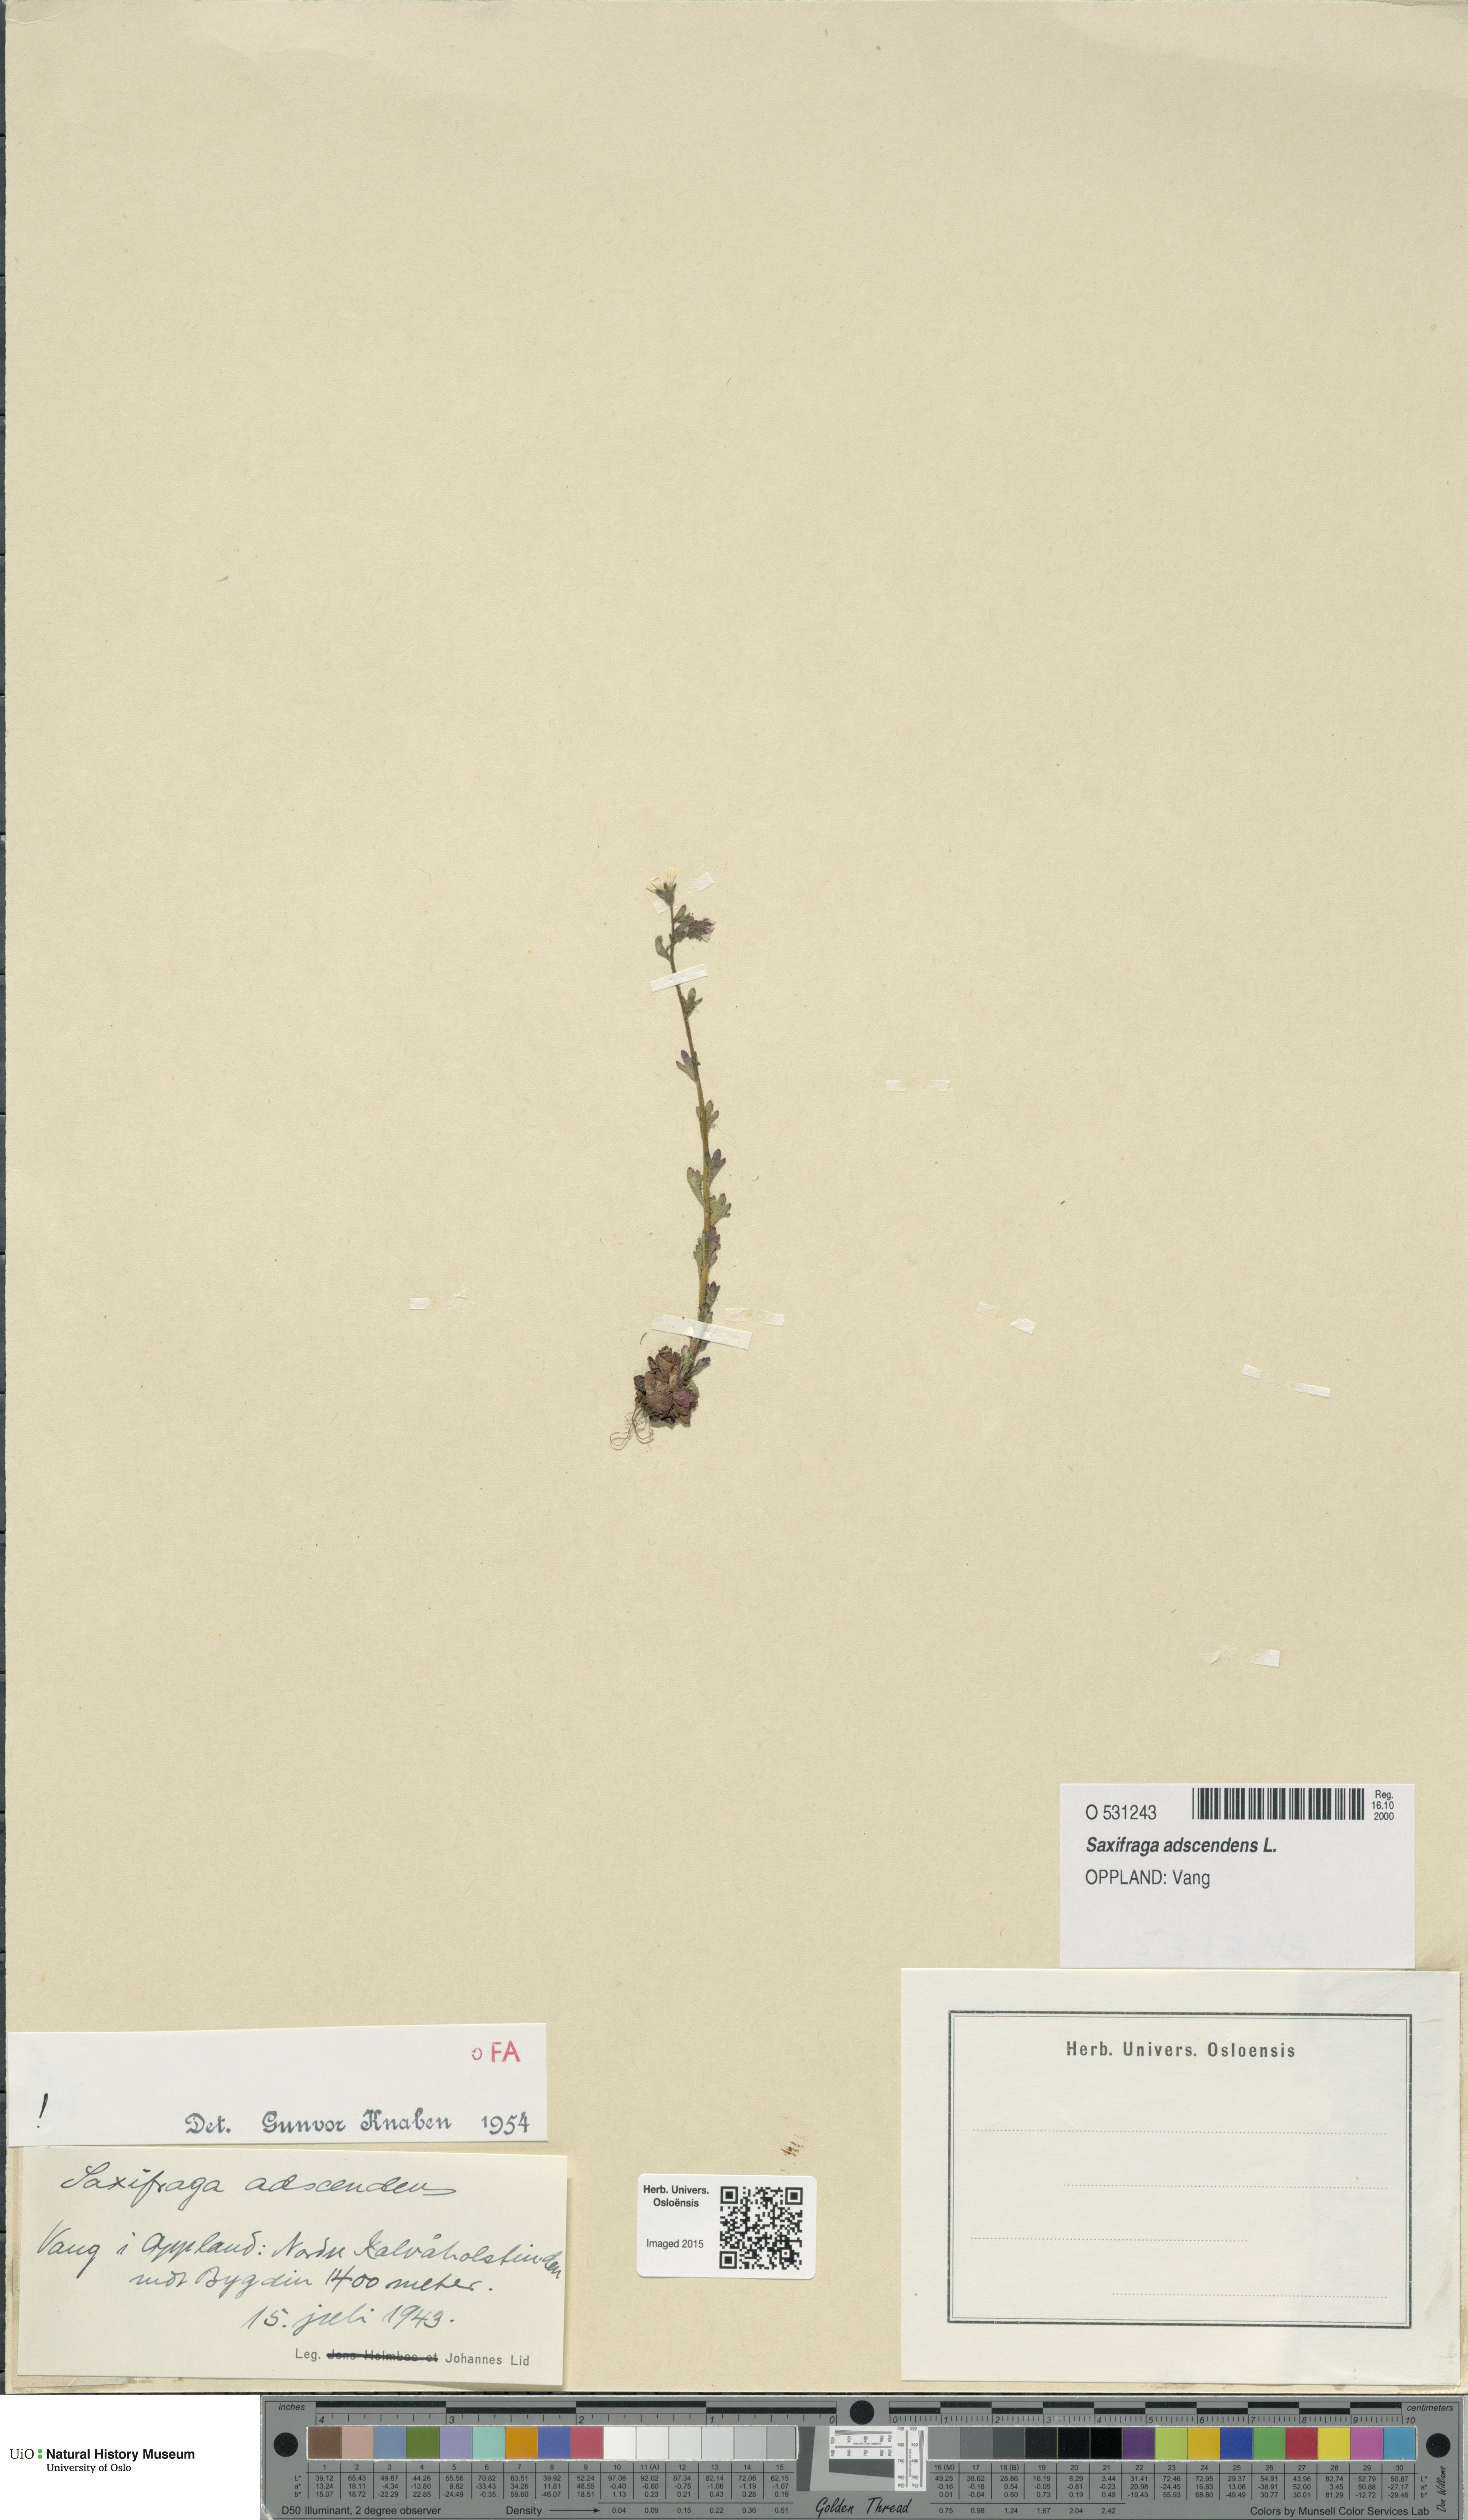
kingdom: Plantae
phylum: Tracheophyta
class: Magnoliopsida
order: Saxifragales
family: Saxifragaceae
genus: Saxifraga
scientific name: Saxifraga adscendens
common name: Ascending saxifrage
